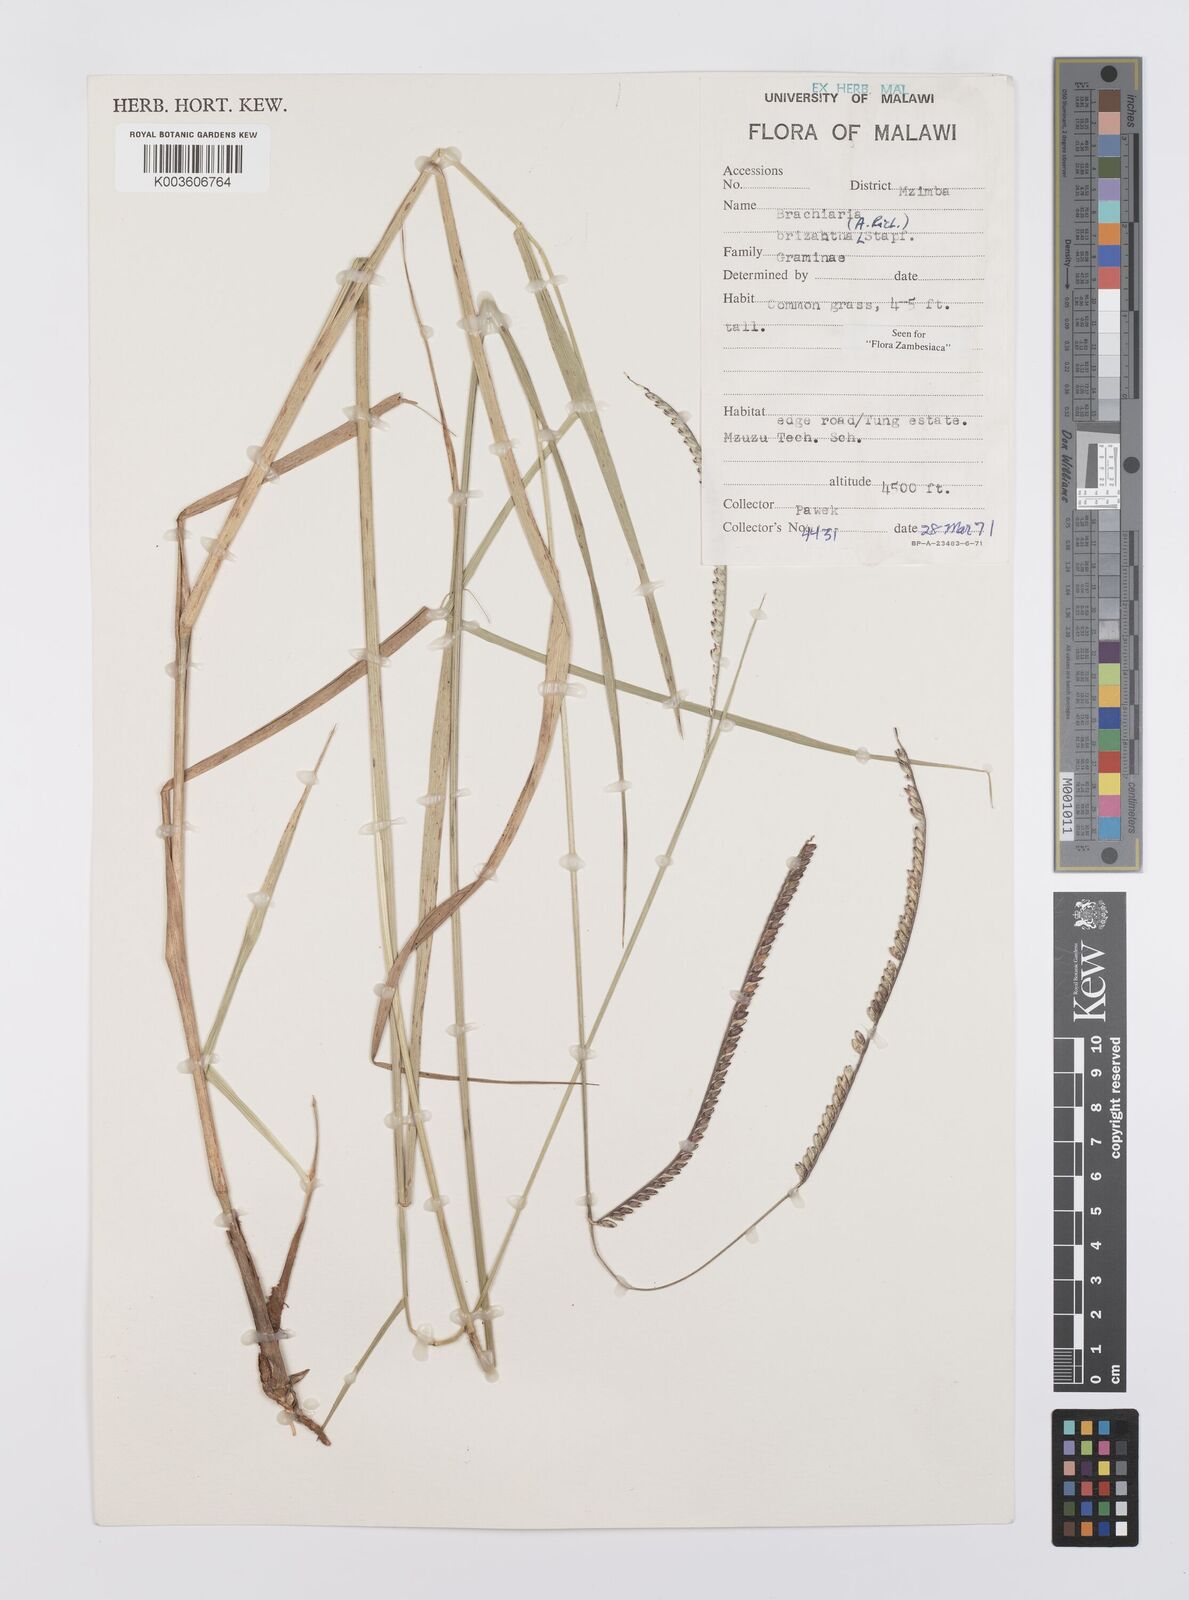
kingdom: Plantae
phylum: Tracheophyta
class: Liliopsida
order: Poales
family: Poaceae
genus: Urochloa
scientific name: Urochloa brizantha
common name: Palisade signalgrass
